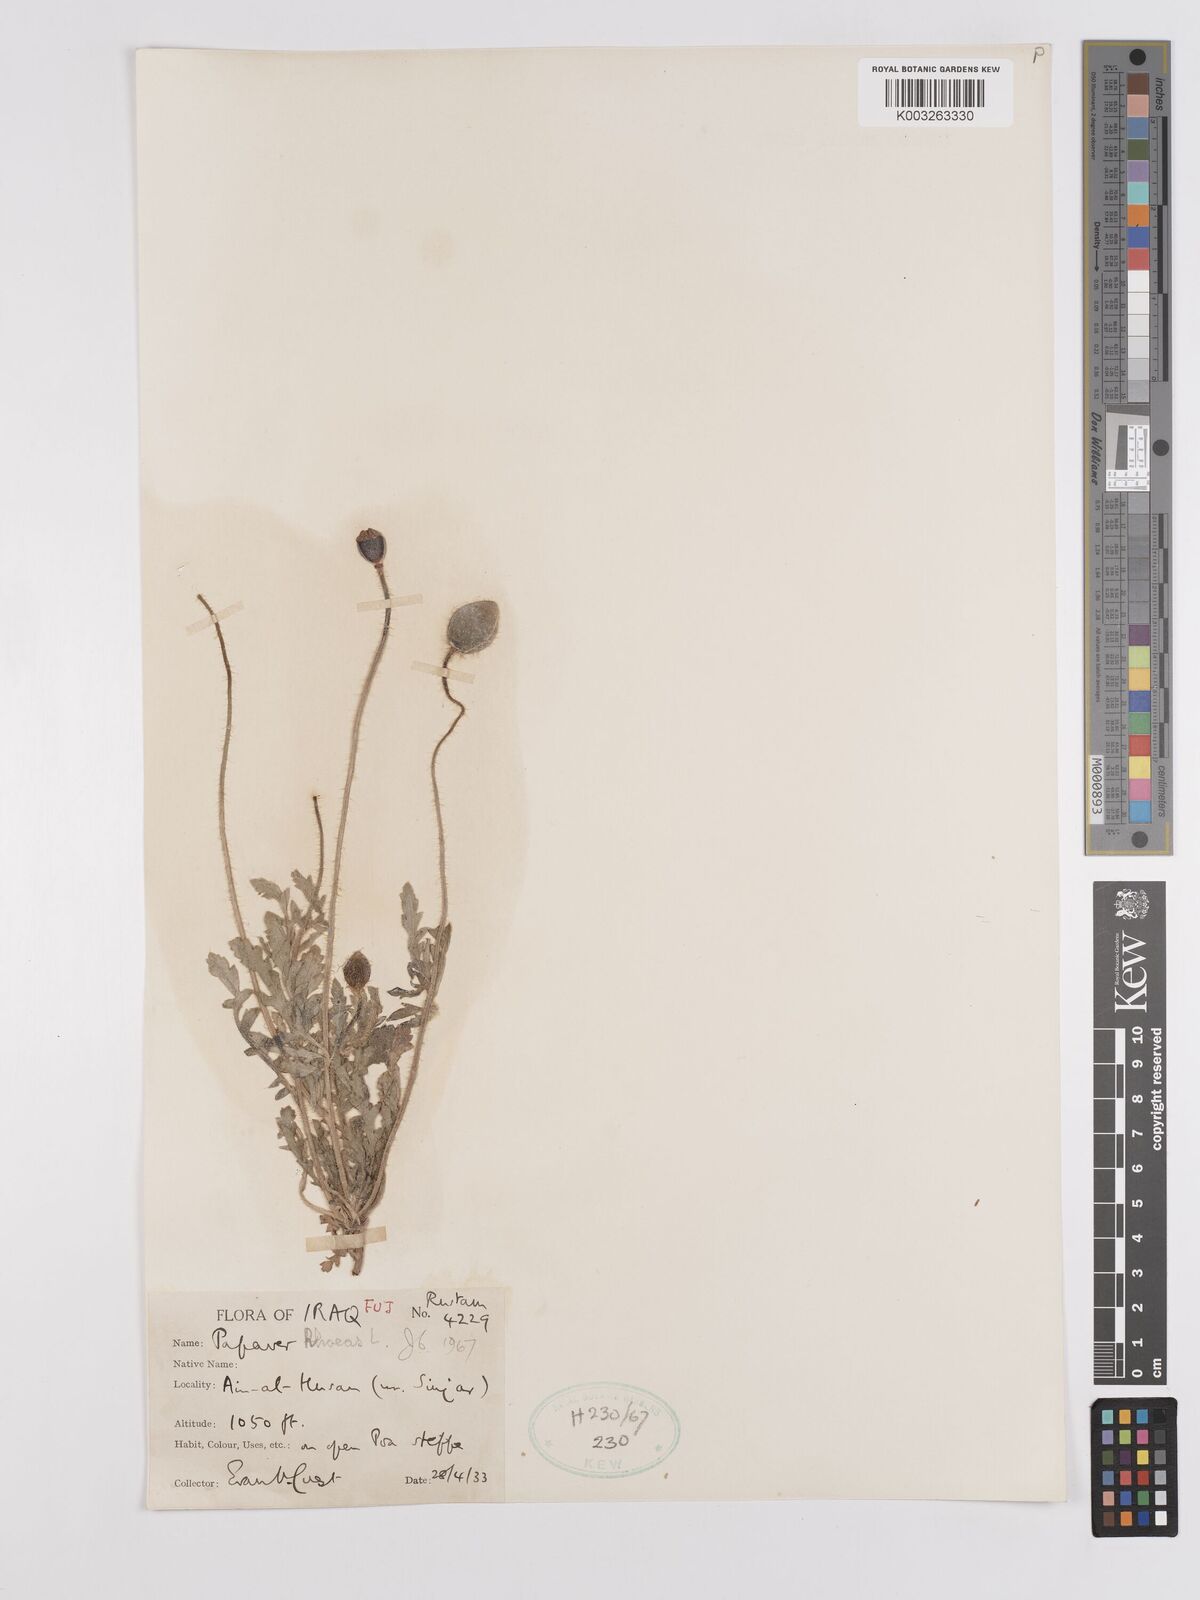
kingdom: Plantae
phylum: Tracheophyta
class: Magnoliopsida
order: Ranunculales
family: Papaveraceae
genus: Papaver
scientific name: Papaver rhoeas
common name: Corn poppy
